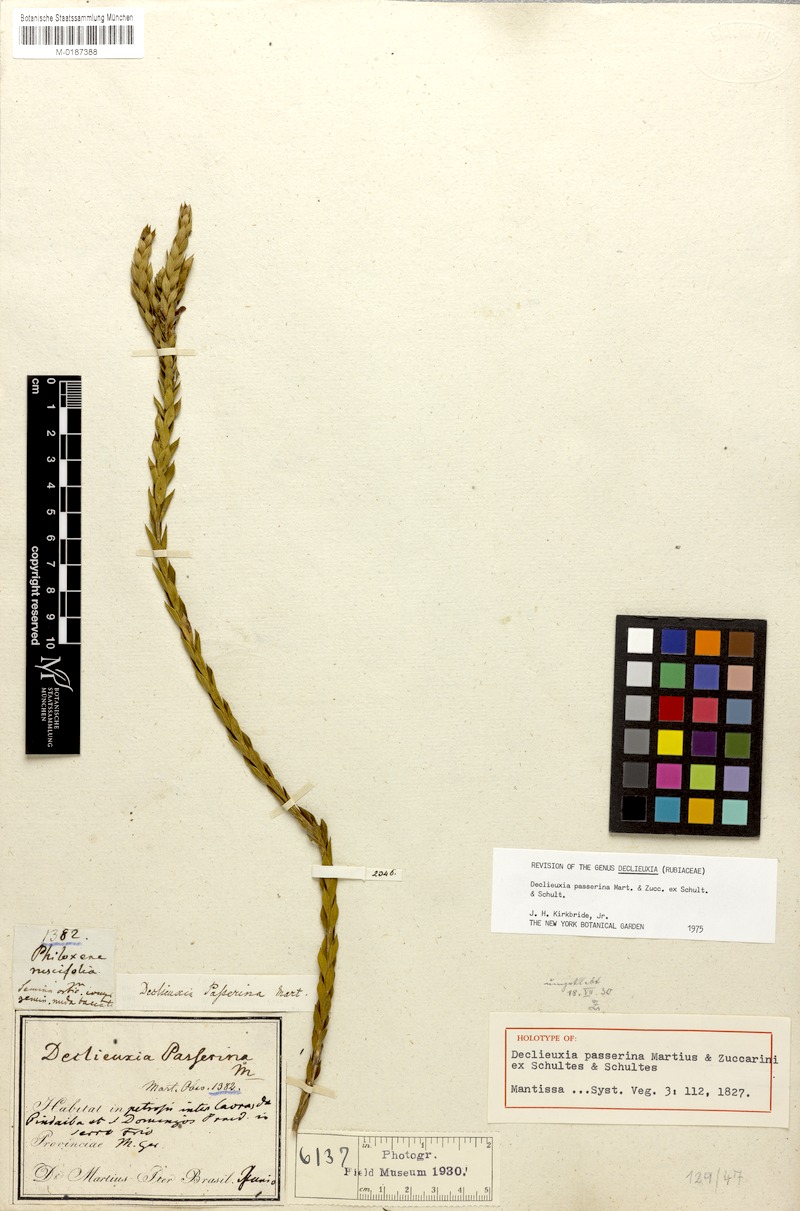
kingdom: Plantae
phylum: Tracheophyta
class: Magnoliopsida
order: Gentianales
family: Rubiaceae
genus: Declieuxia
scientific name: Declieuxia passerina
